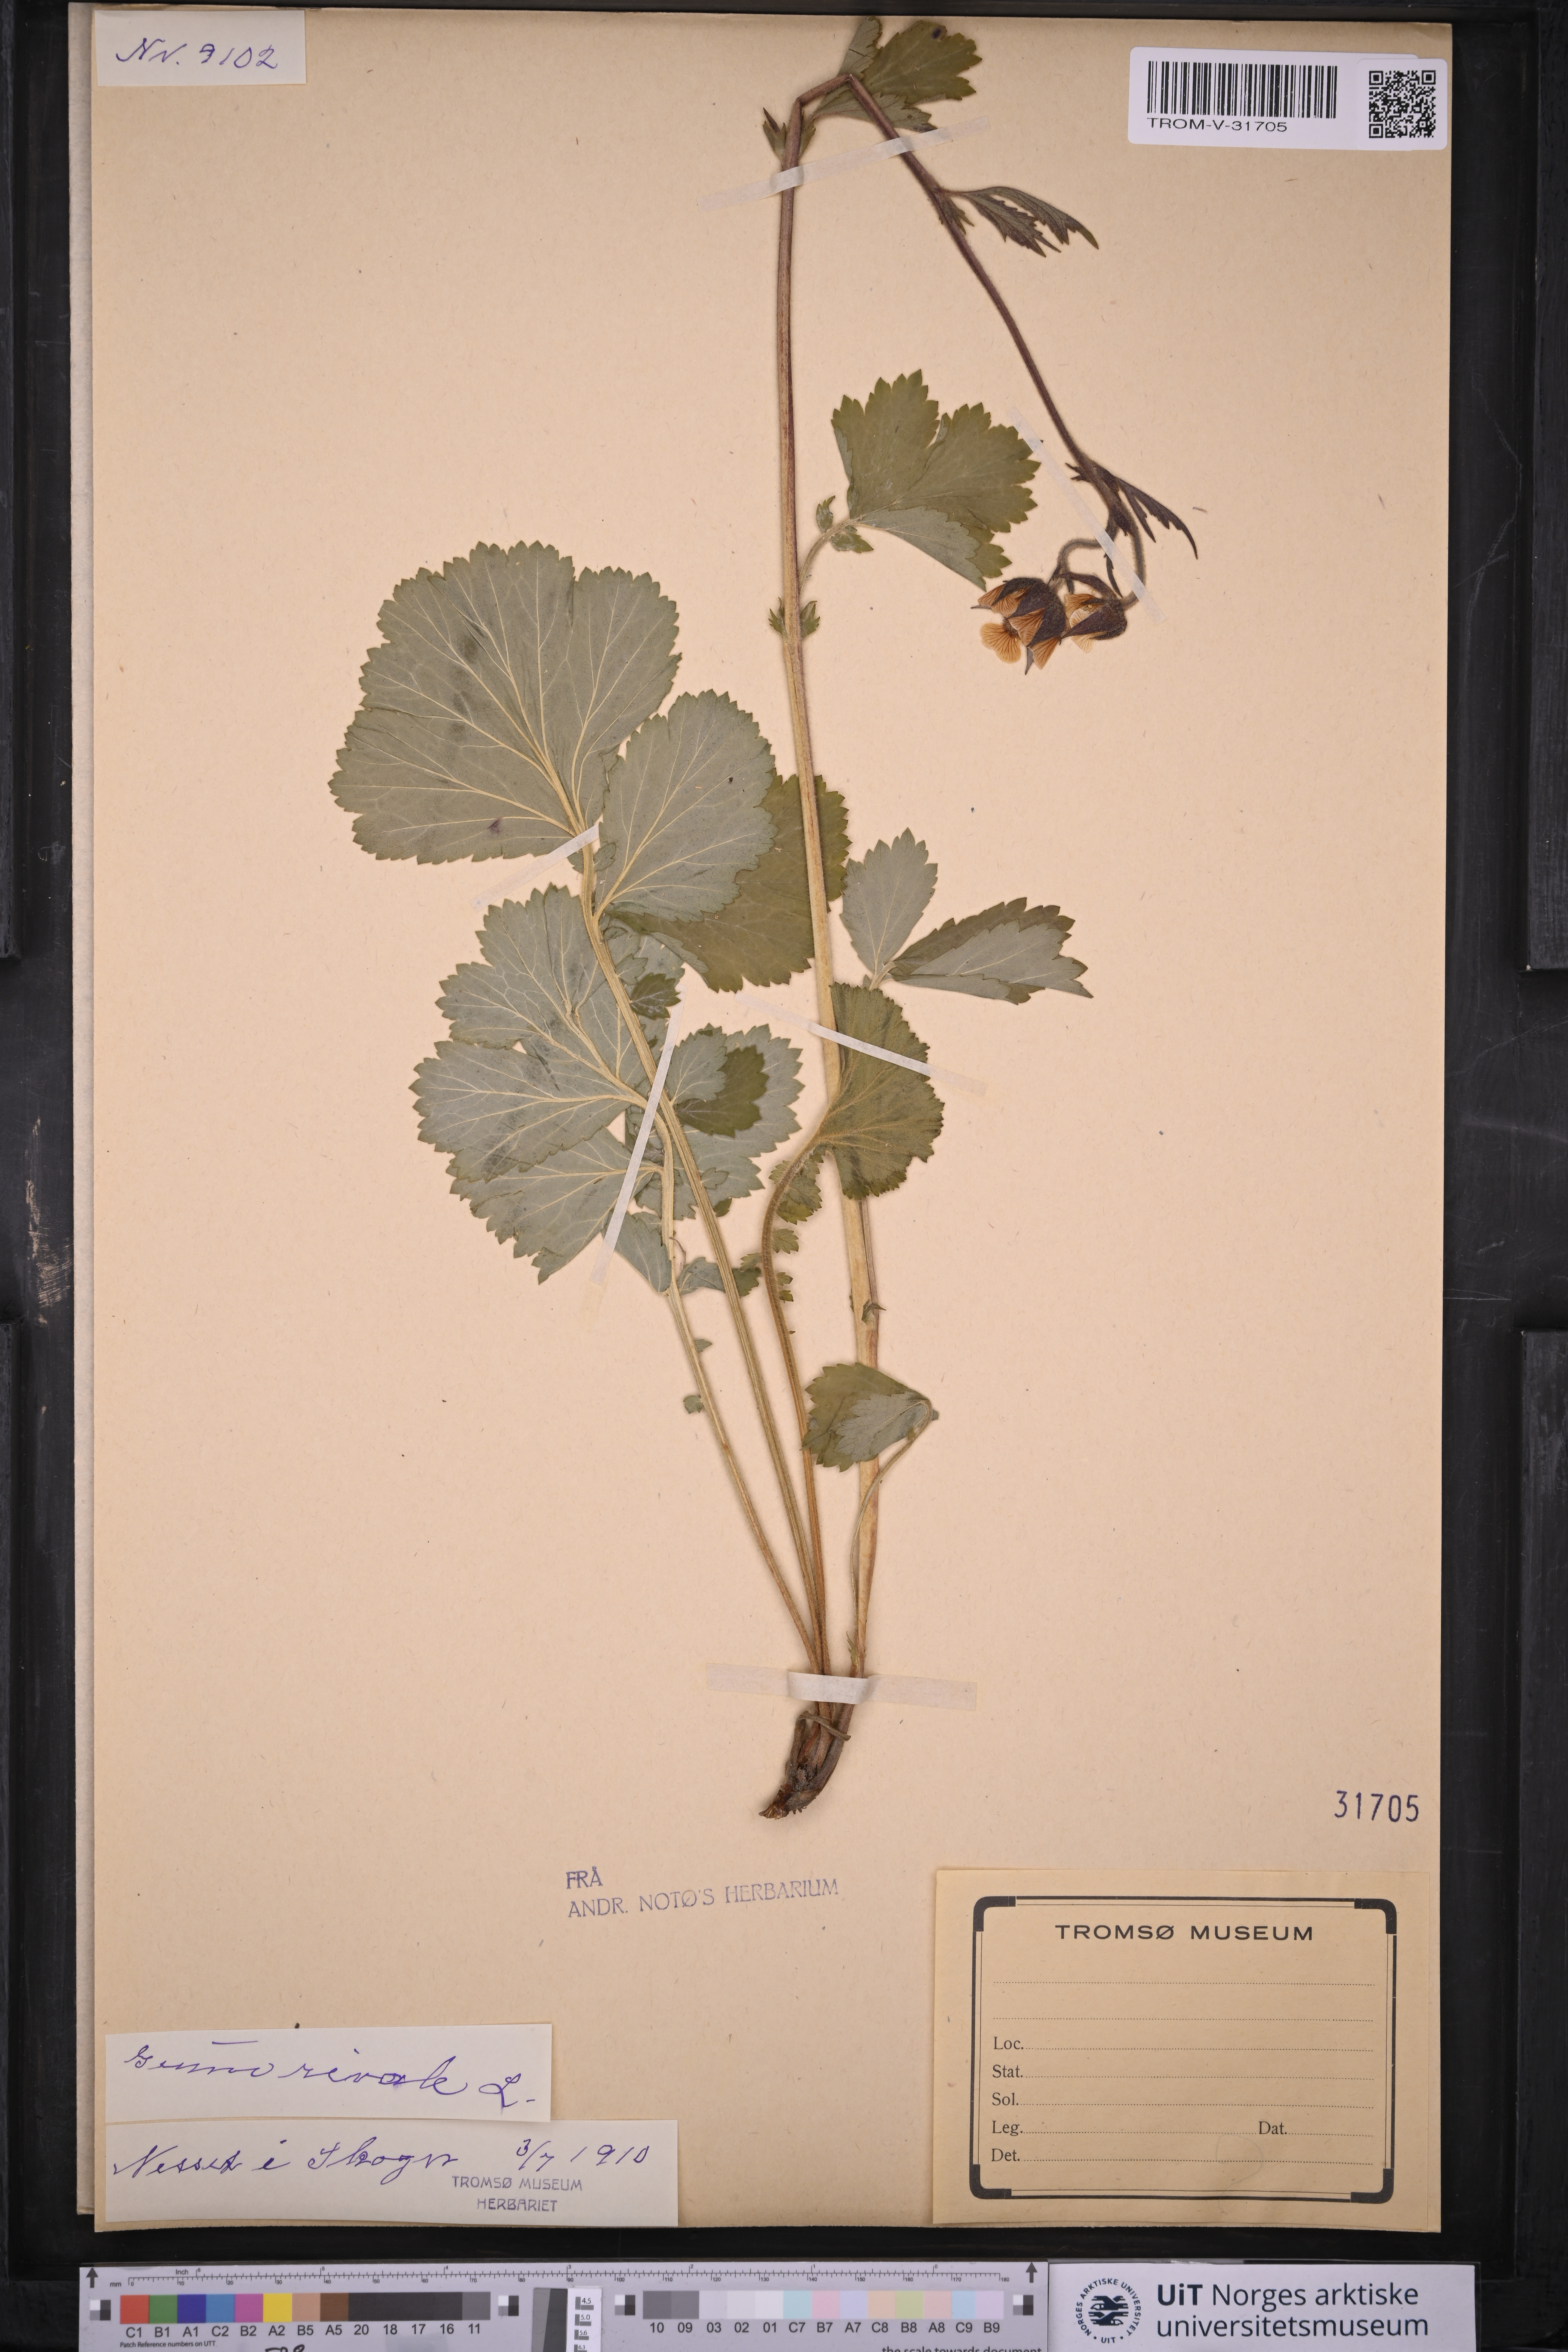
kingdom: Plantae
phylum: Tracheophyta
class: Magnoliopsida
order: Rosales
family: Rosaceae
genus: Geum
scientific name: Geum rivale
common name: Water avens
